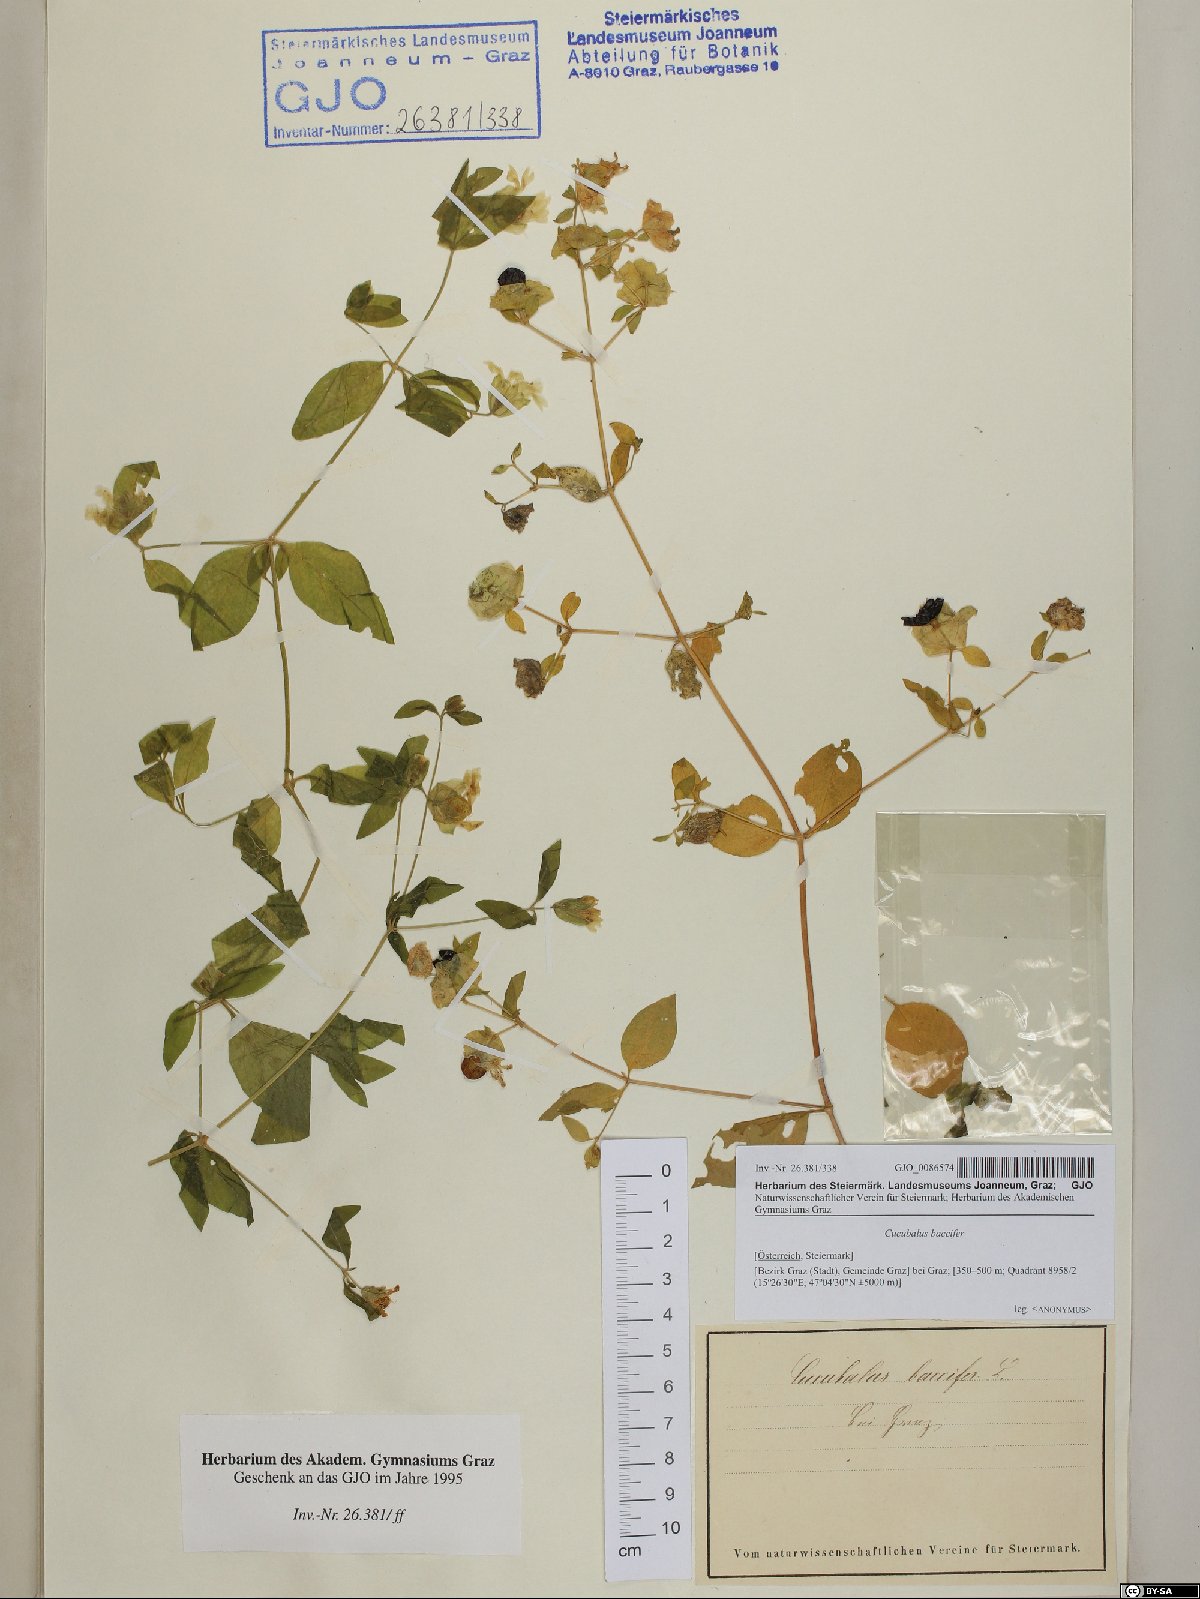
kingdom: Plantae
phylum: Tracheophyta
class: Magnoliopsida
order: Caryophyllales
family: Caryophyllaceae
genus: Silene
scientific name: Silene baccifera
